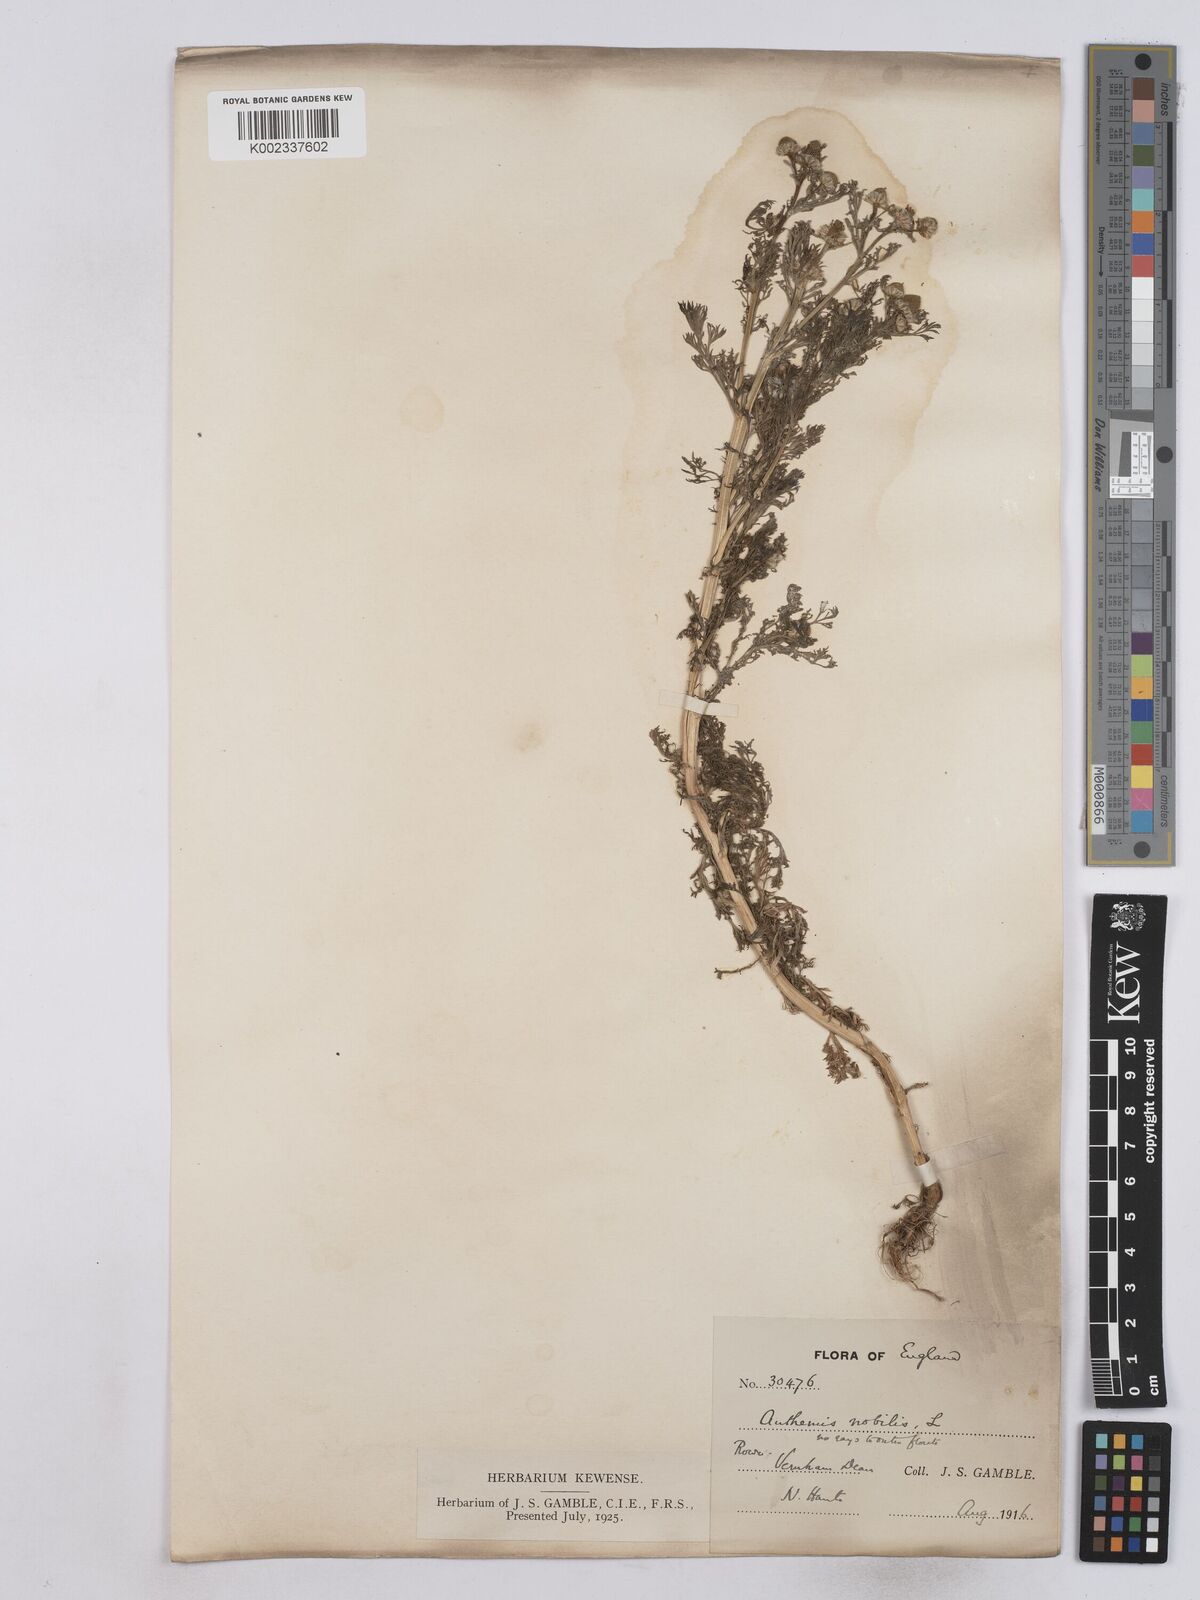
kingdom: Plantae
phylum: Tracheophyta
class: Magnoliopsida
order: Asterales
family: Asteraceae
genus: Matricaria
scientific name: Matricaria discoidea
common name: Disc mayweed
